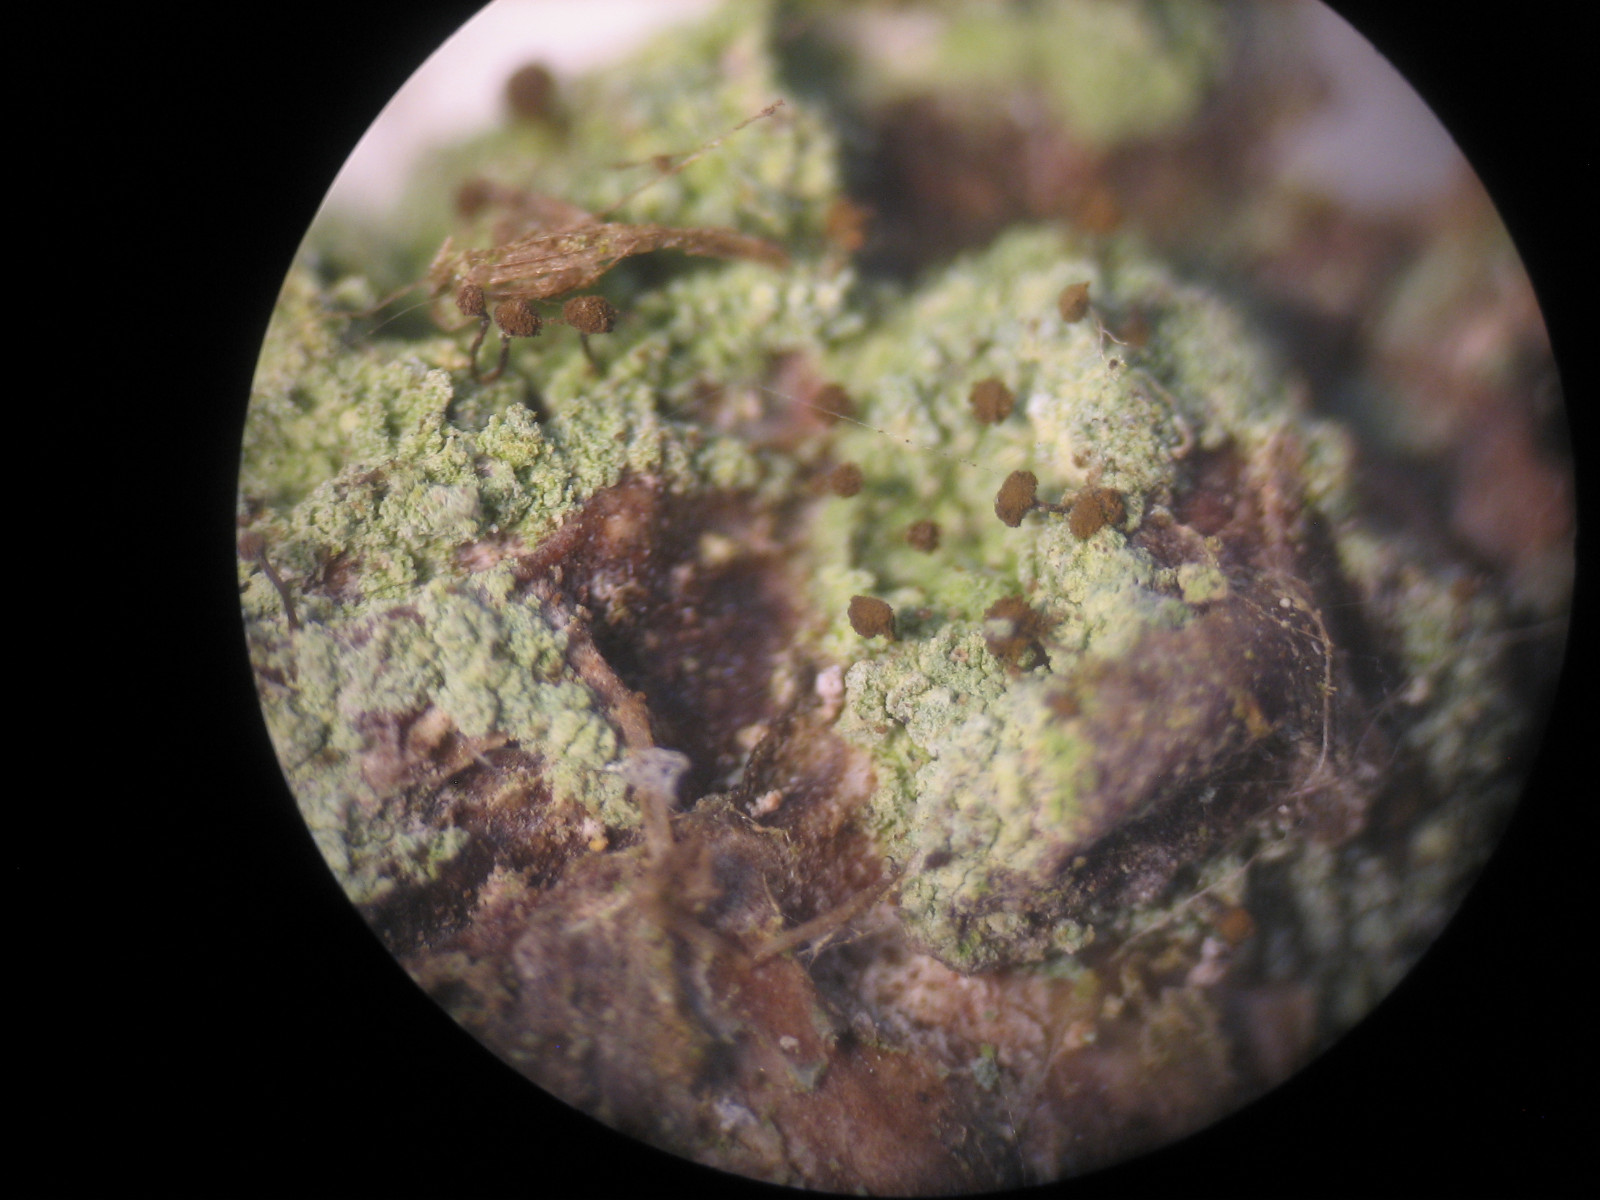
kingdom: Fungi
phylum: Ascomycota
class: Coniocybomycetes
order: Coniocybales
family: Coniocybaceae
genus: Chaenotheca
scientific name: Chaenotheca trichialis
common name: grå knappenålslav
